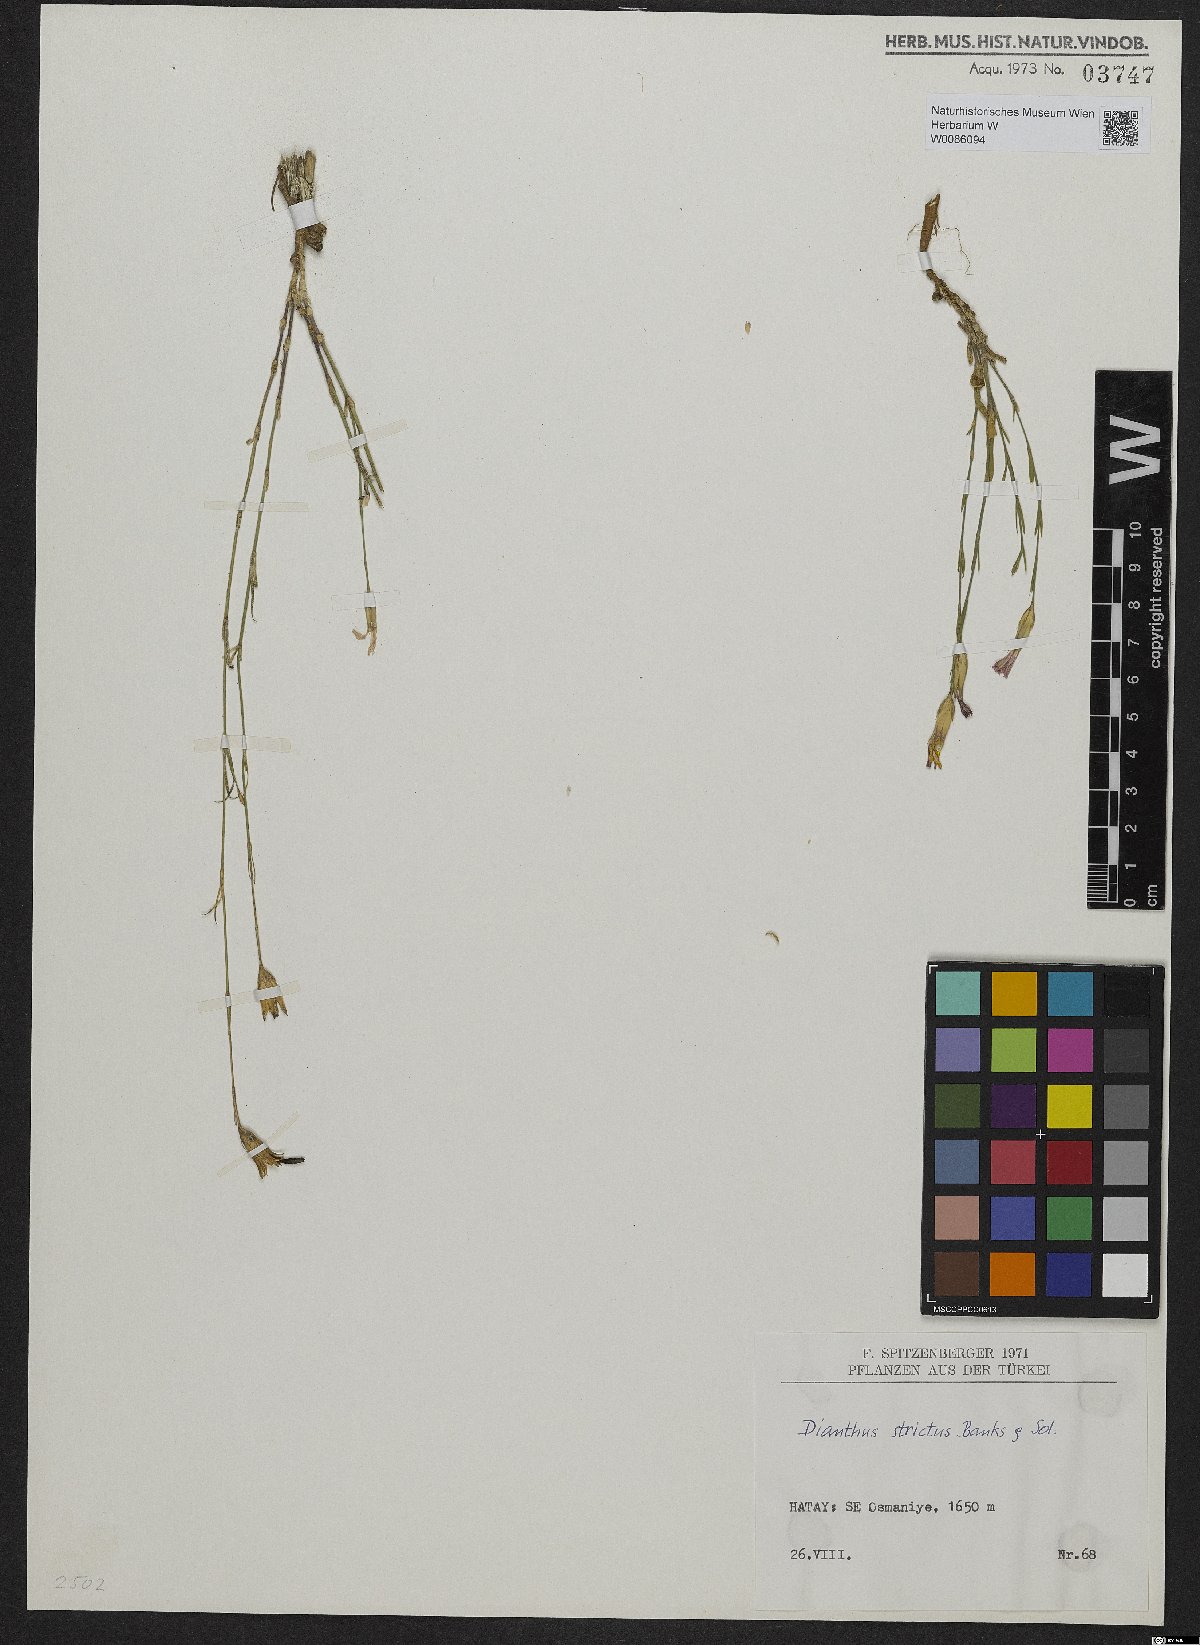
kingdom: Plantae
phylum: Tracheophyta
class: Magnoliopsida
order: Caryophyllales
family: Caryophyllaceae
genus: Dianthus
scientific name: Dianthus strictus
